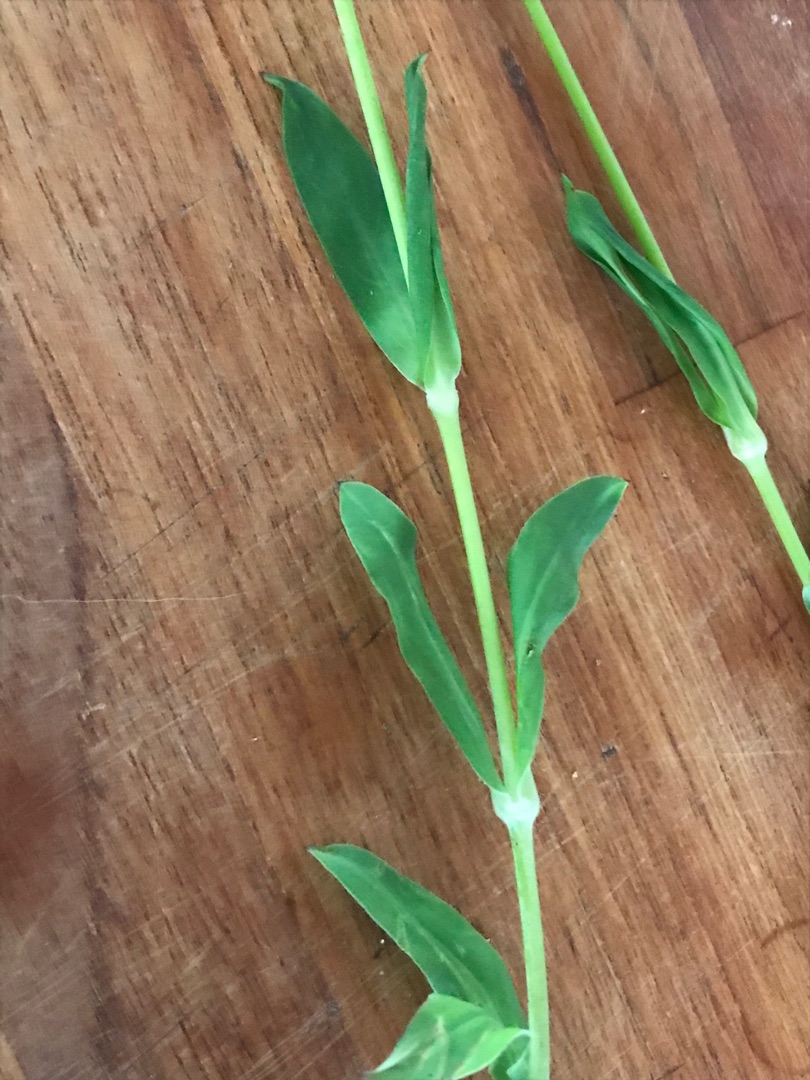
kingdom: Plantae
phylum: Tracheophyta
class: Magnoliopsida
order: Caryophyllales
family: Caryophyllaceae
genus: Silene
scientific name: Silene vulgaris
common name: Blæresmælde
